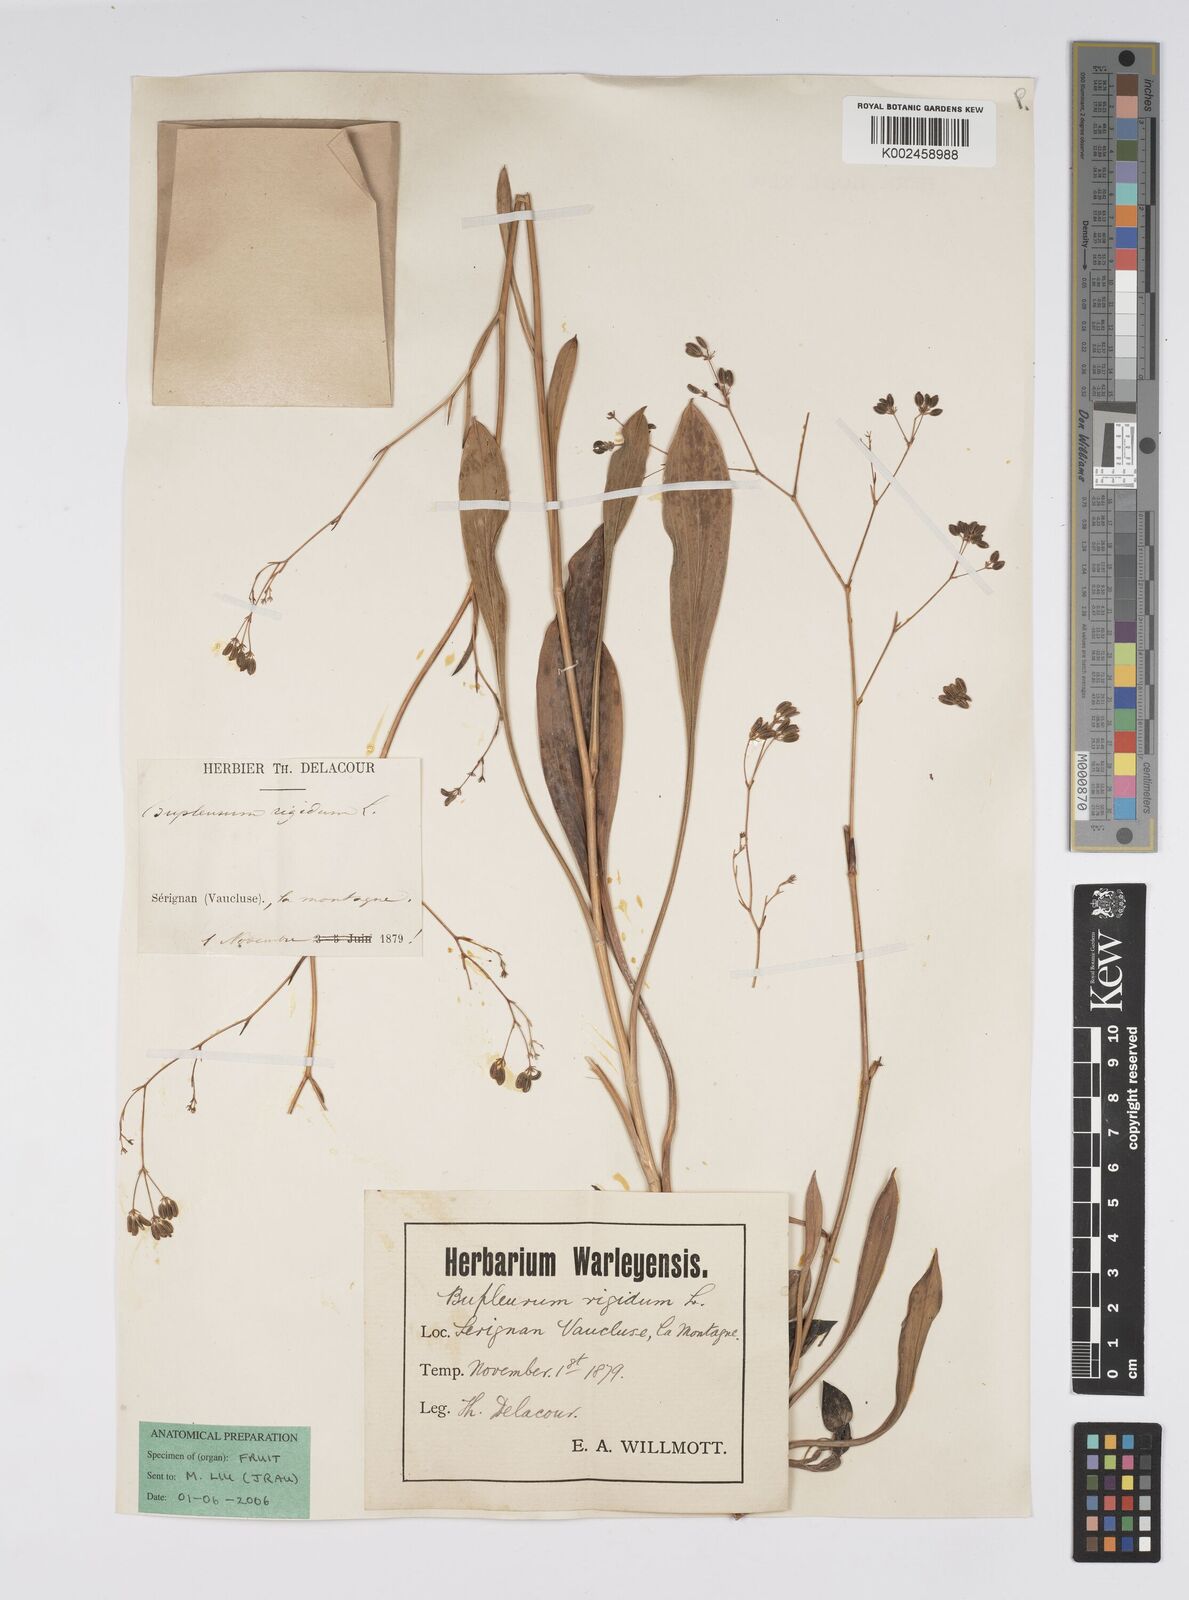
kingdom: Plantae
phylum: Tracheophyta
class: Magnoliopsida
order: Apiales
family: Apiaceae
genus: Bupleurum
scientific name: Bupleurum rigidum
